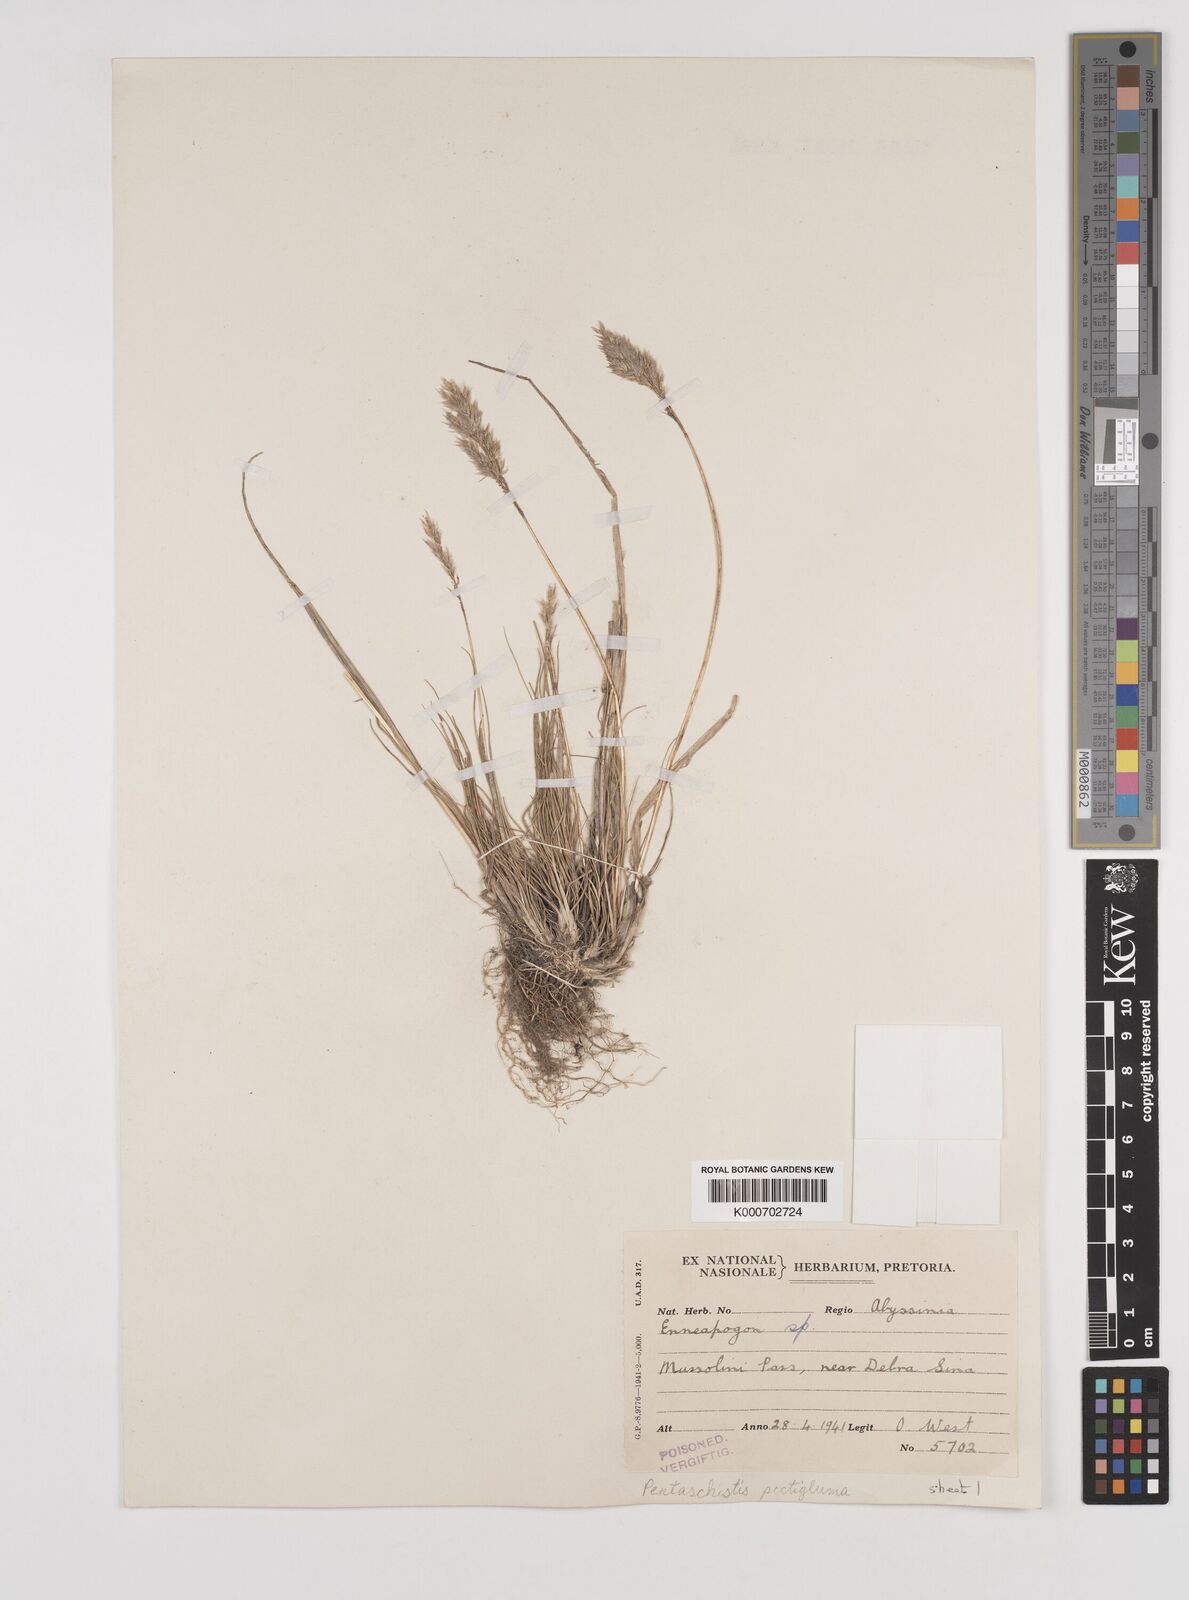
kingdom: Plantae
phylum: Tracheophyta
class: Liliopsida
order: Poales
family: Poaceae
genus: Pentameris
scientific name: Pentameris pictigluma
